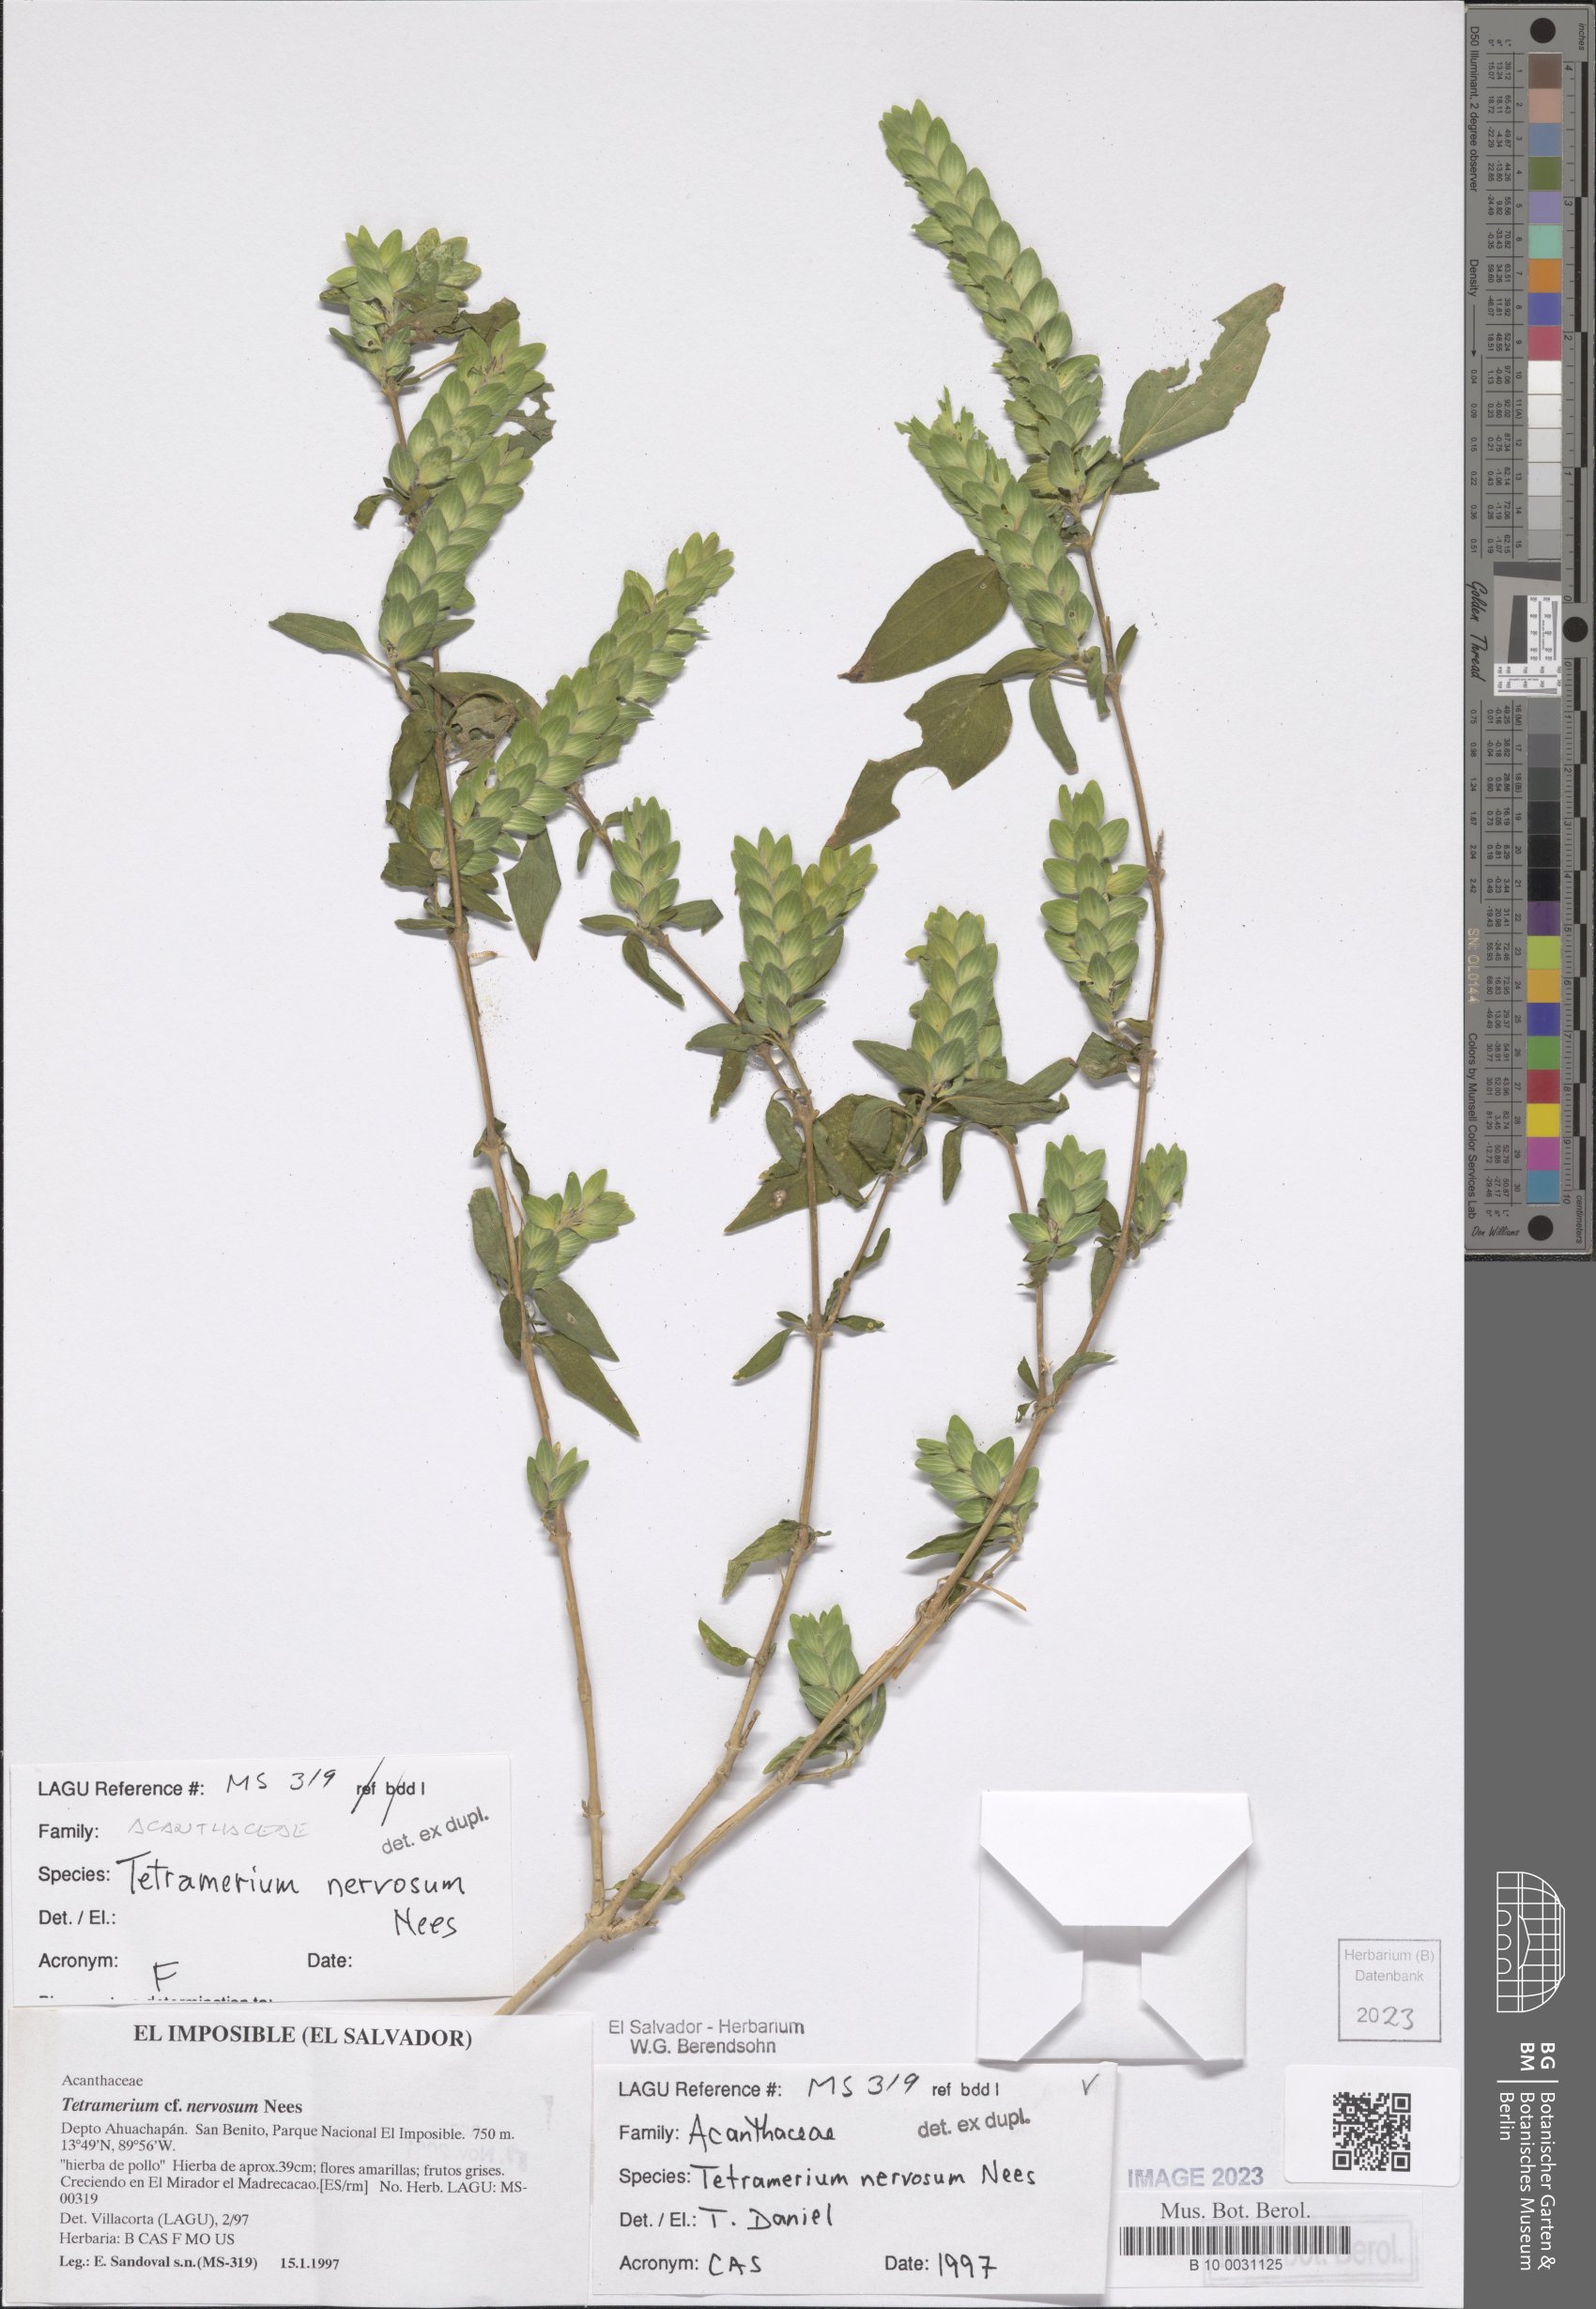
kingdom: Plantae
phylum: Tracheophyta
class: Magnoliopsida
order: Lamiales
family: Acanthaceae
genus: Tetramerium
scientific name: Tetramerium nervosum
